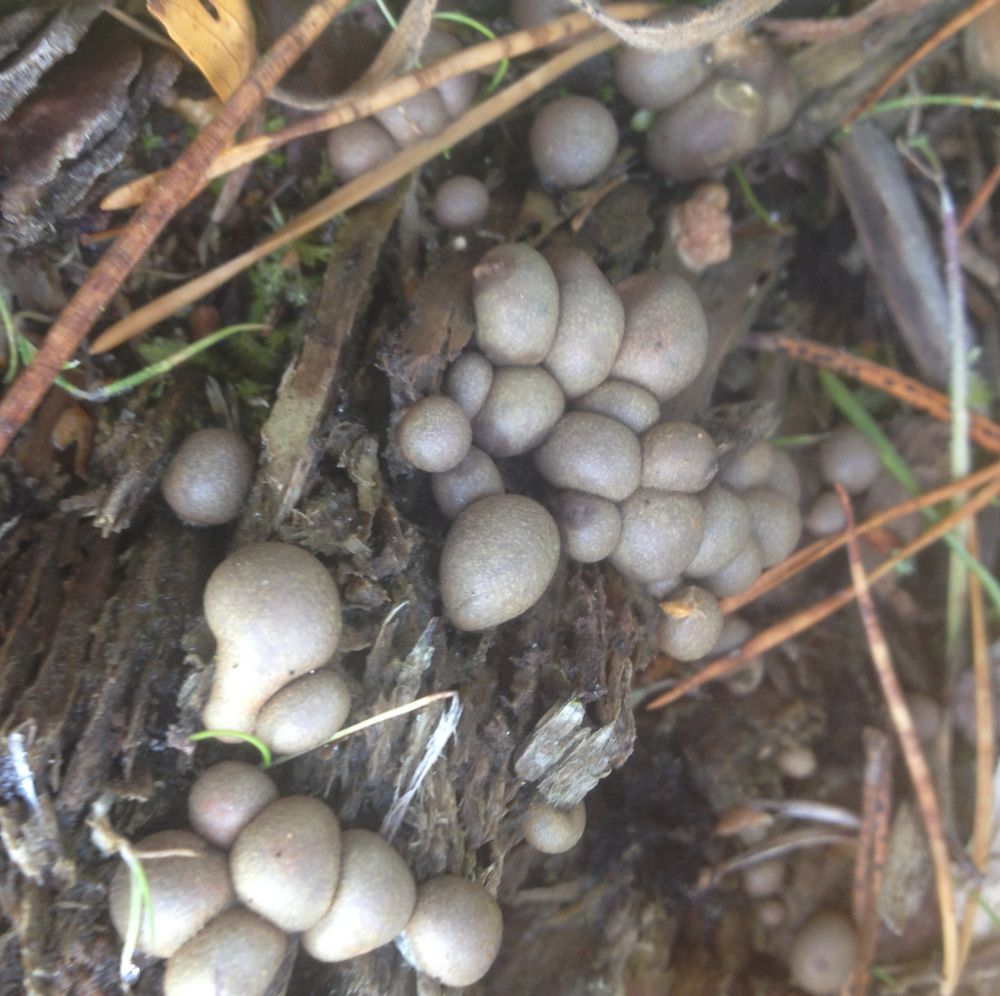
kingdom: Protozoa
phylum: Mycetozoa
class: Myxomycetes
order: Cribrariales
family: Tubiferaceae
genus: Lycogala
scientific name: Lycogala epidendrum
